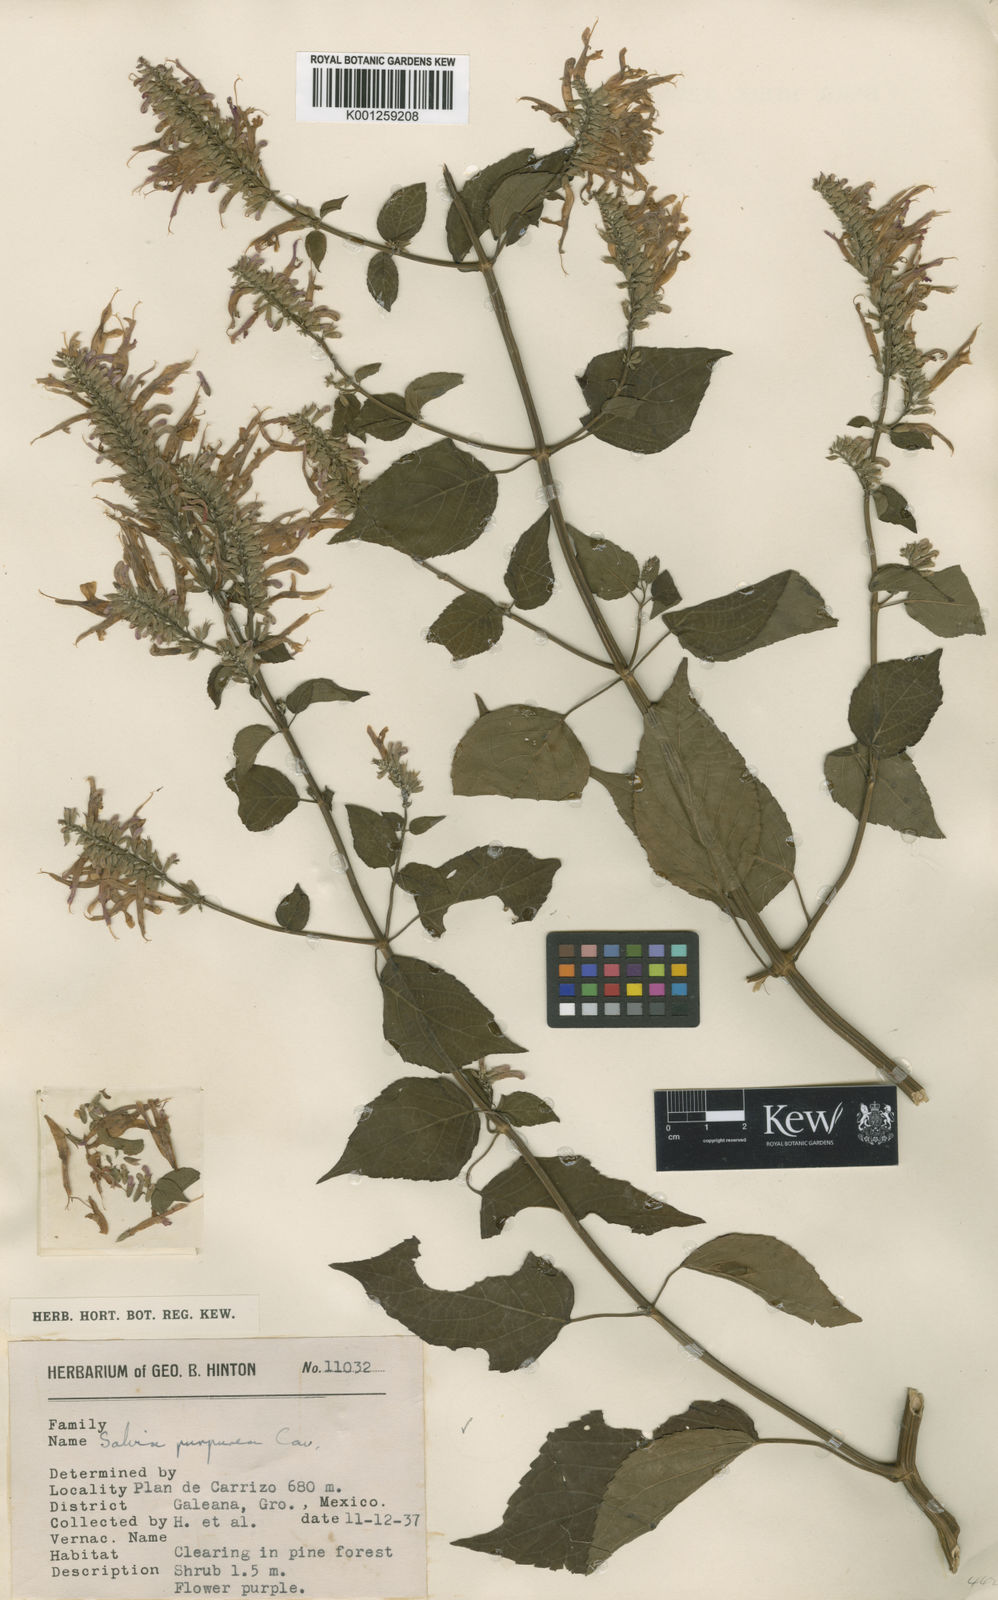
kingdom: Plantae
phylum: Tracheophyta
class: Magnoliopsida
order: Lamiales
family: Lamiaceae
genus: Salvia
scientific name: Salvia
